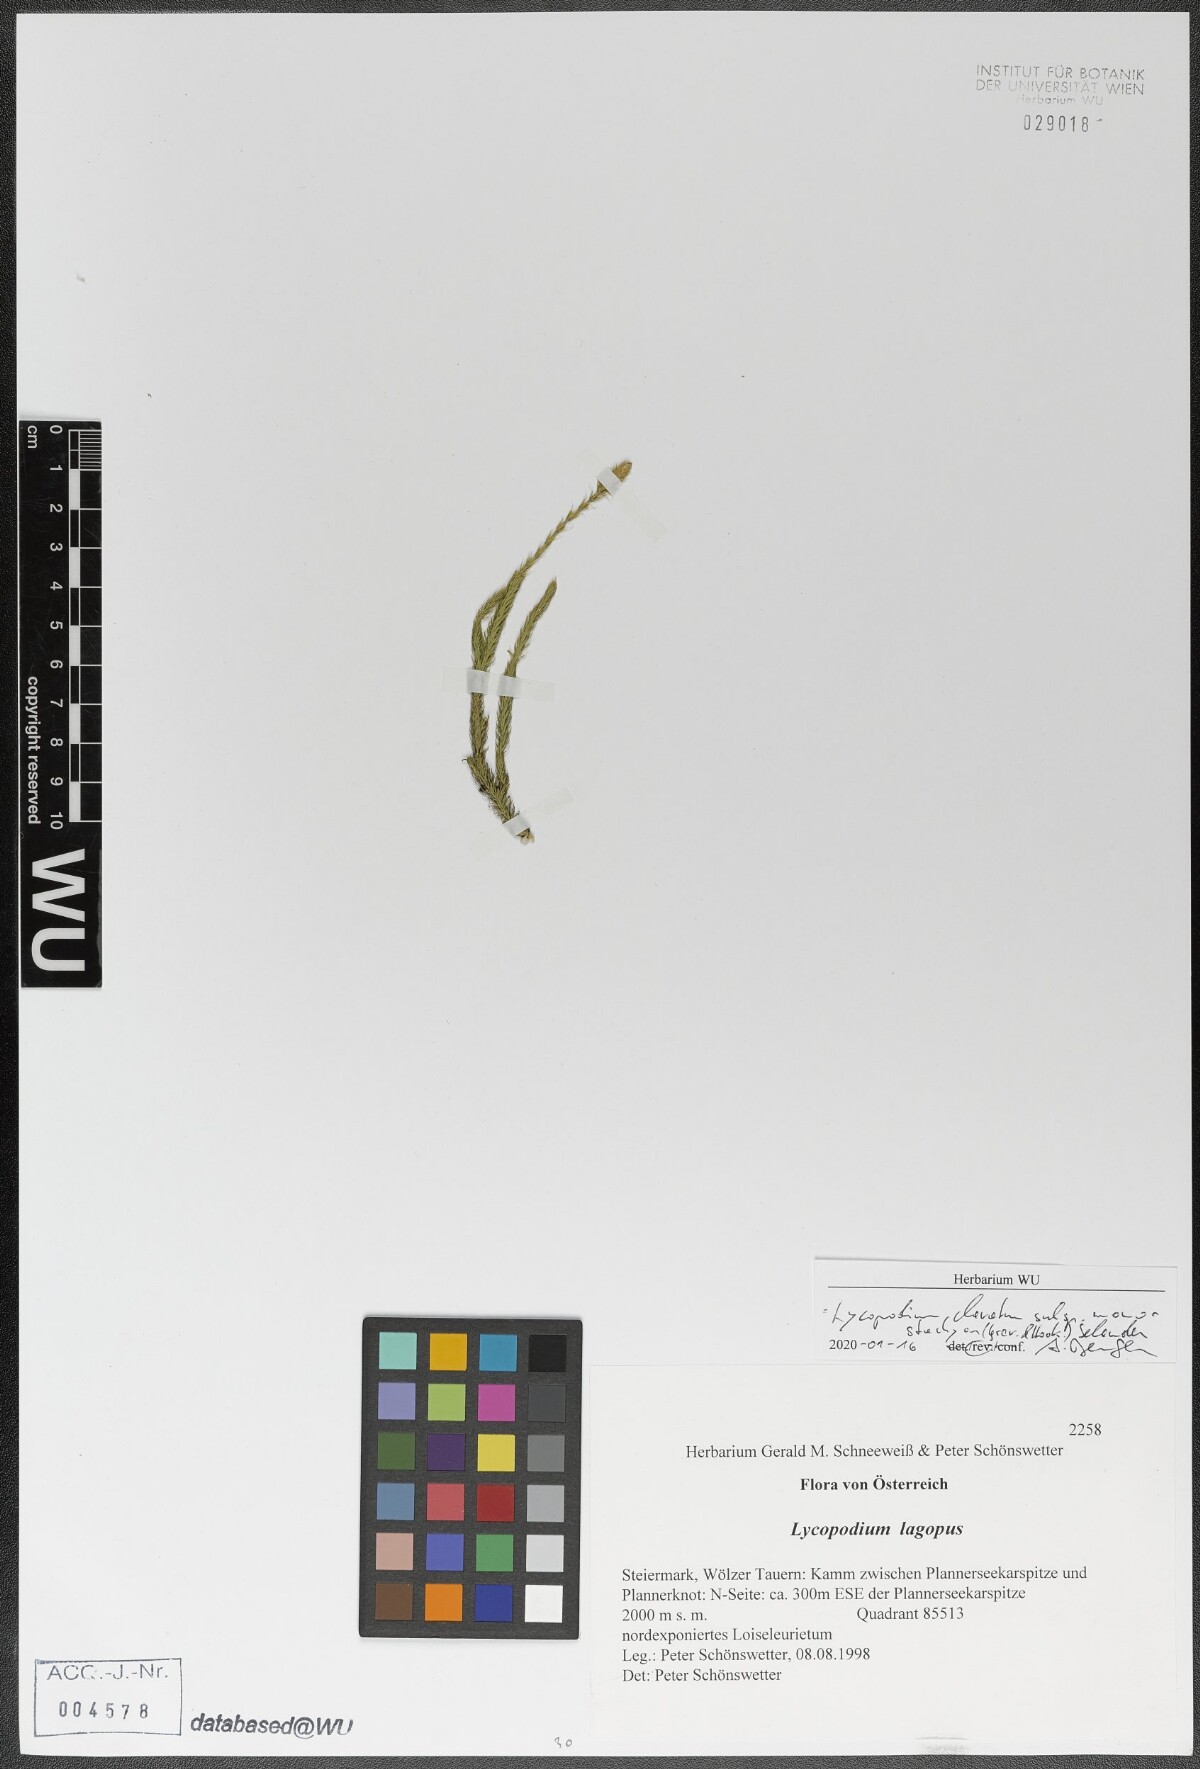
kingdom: Plantae
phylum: Tracheophyta
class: Lycopodiopsida
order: Lycopodiales
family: Lycopodiaceae
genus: Lycopodium
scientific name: Lycopodium lagopus
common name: One-cone clubmoss
